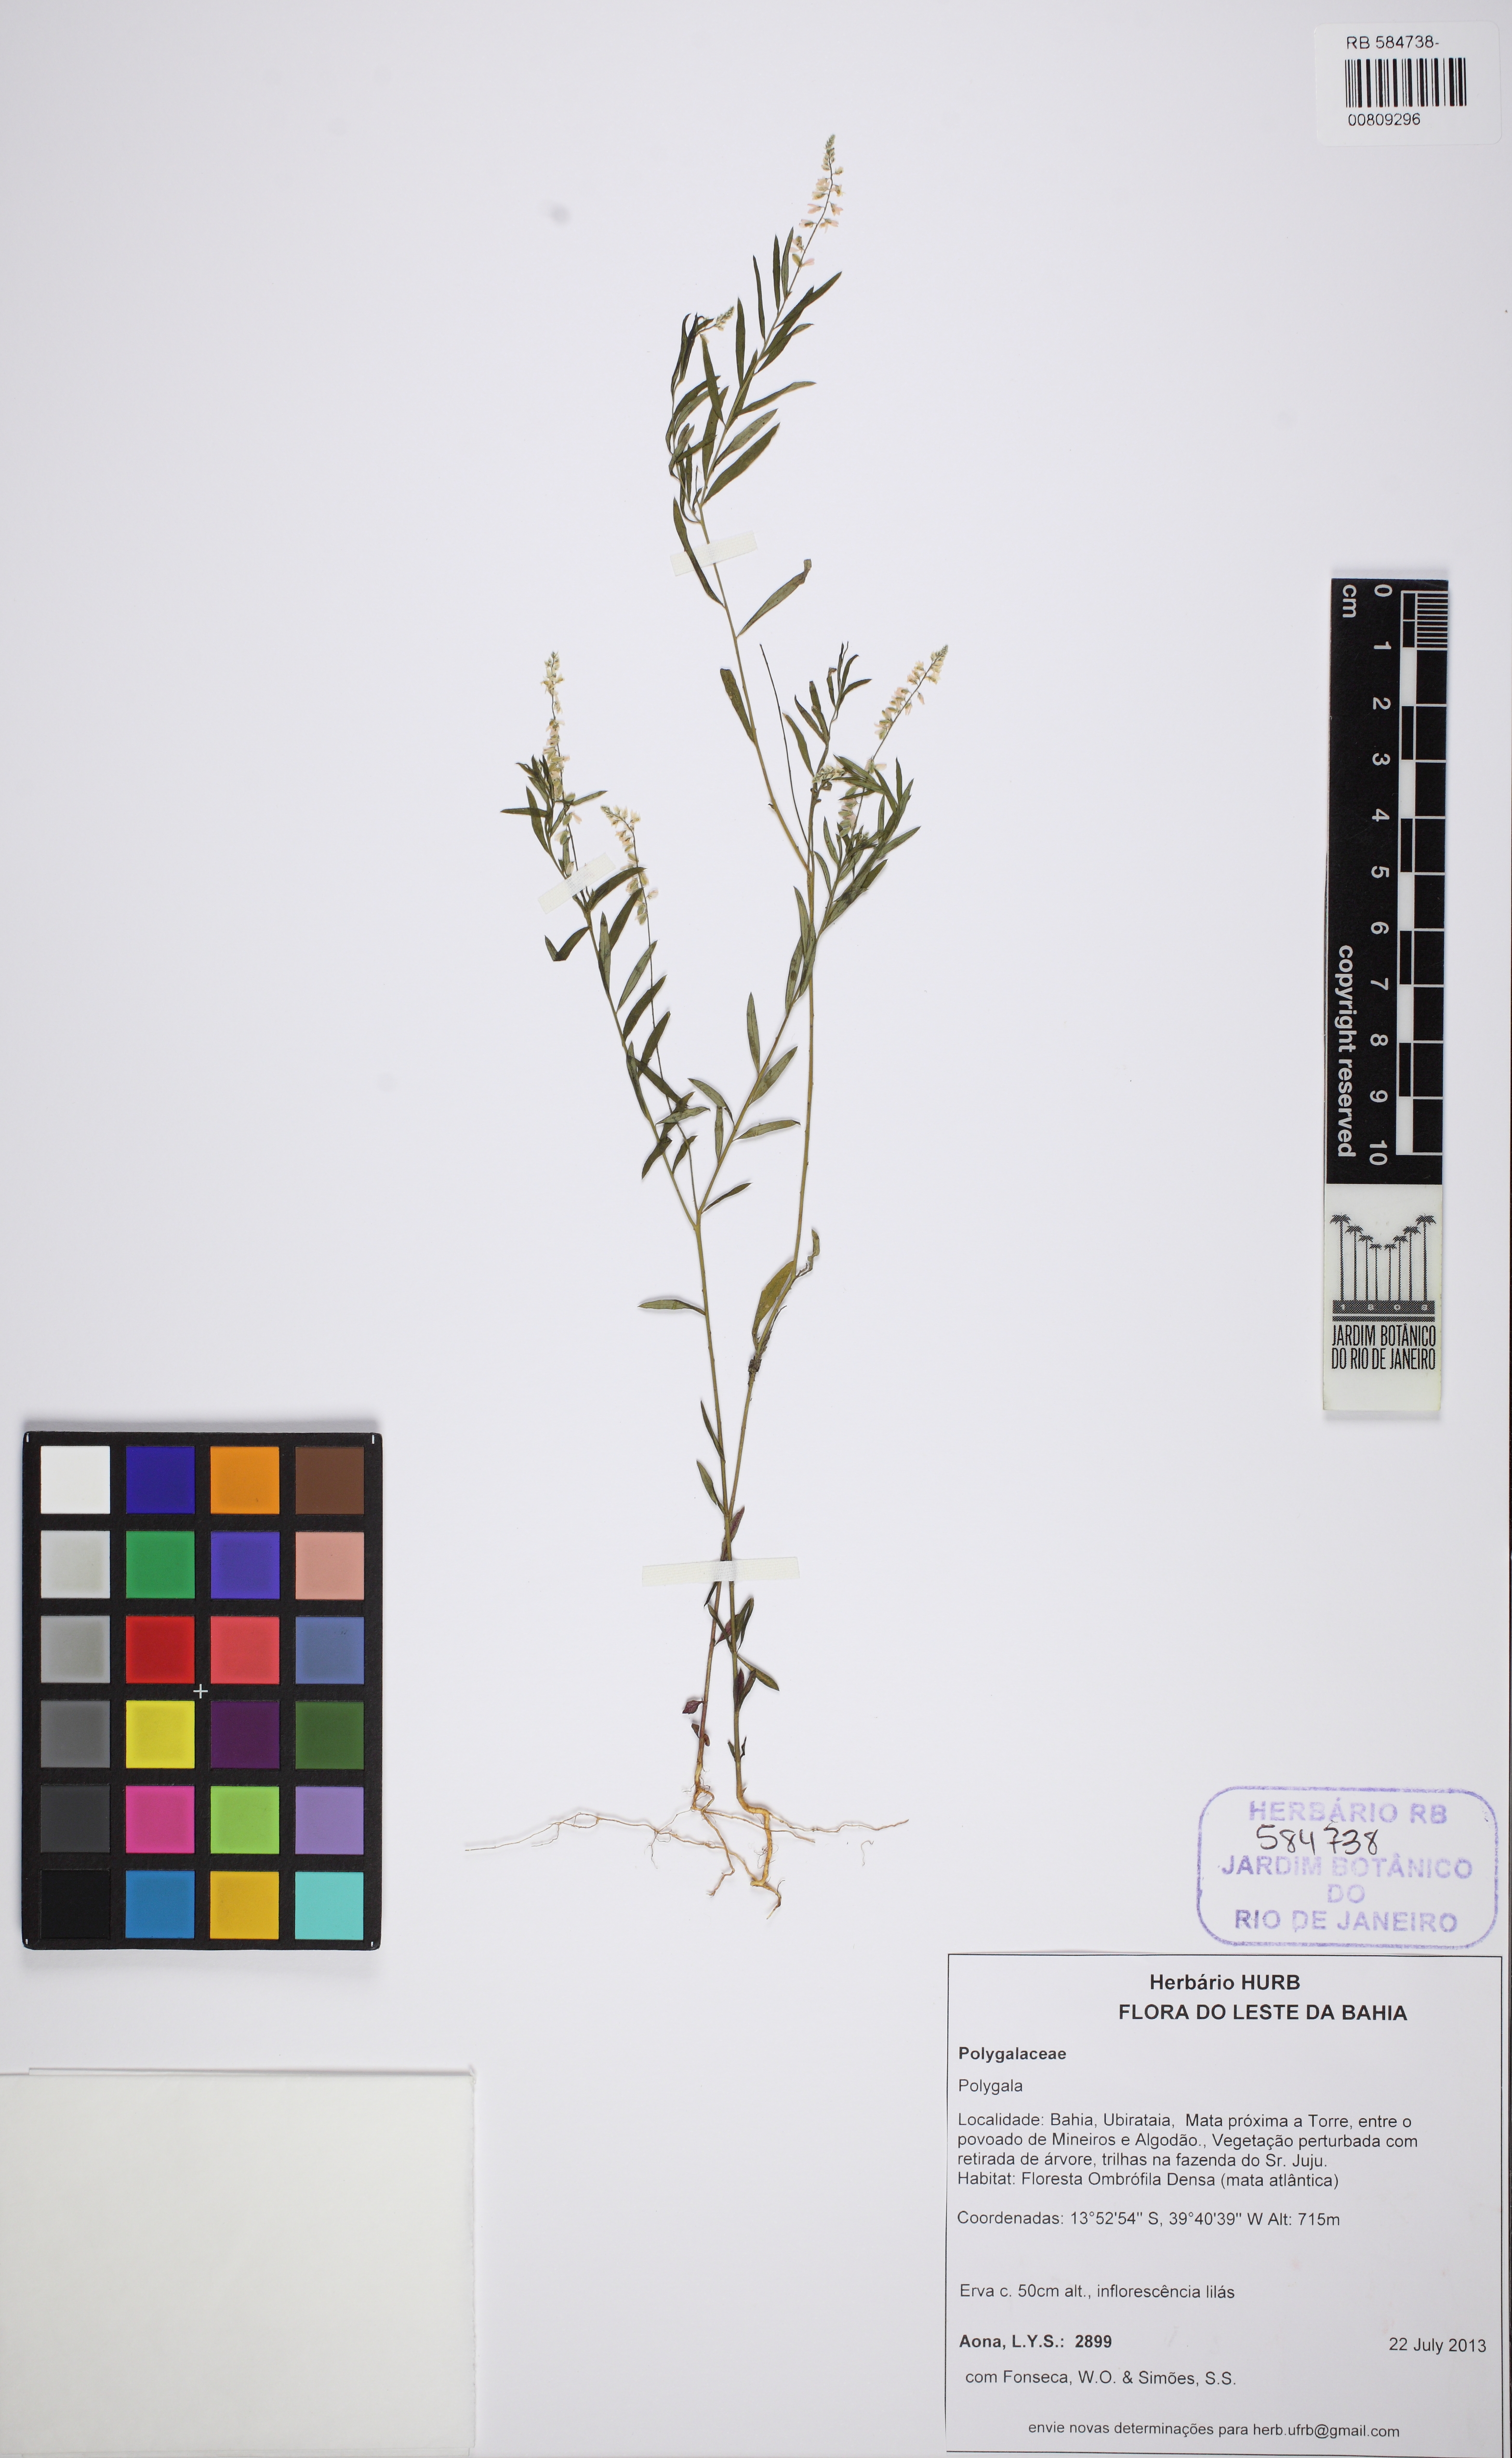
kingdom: Plantae
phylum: Tracheophyta
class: Magnoliopsida
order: Fabales
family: Polygalaceae
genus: Polygala
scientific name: Polygala paniculata
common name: Orosne
